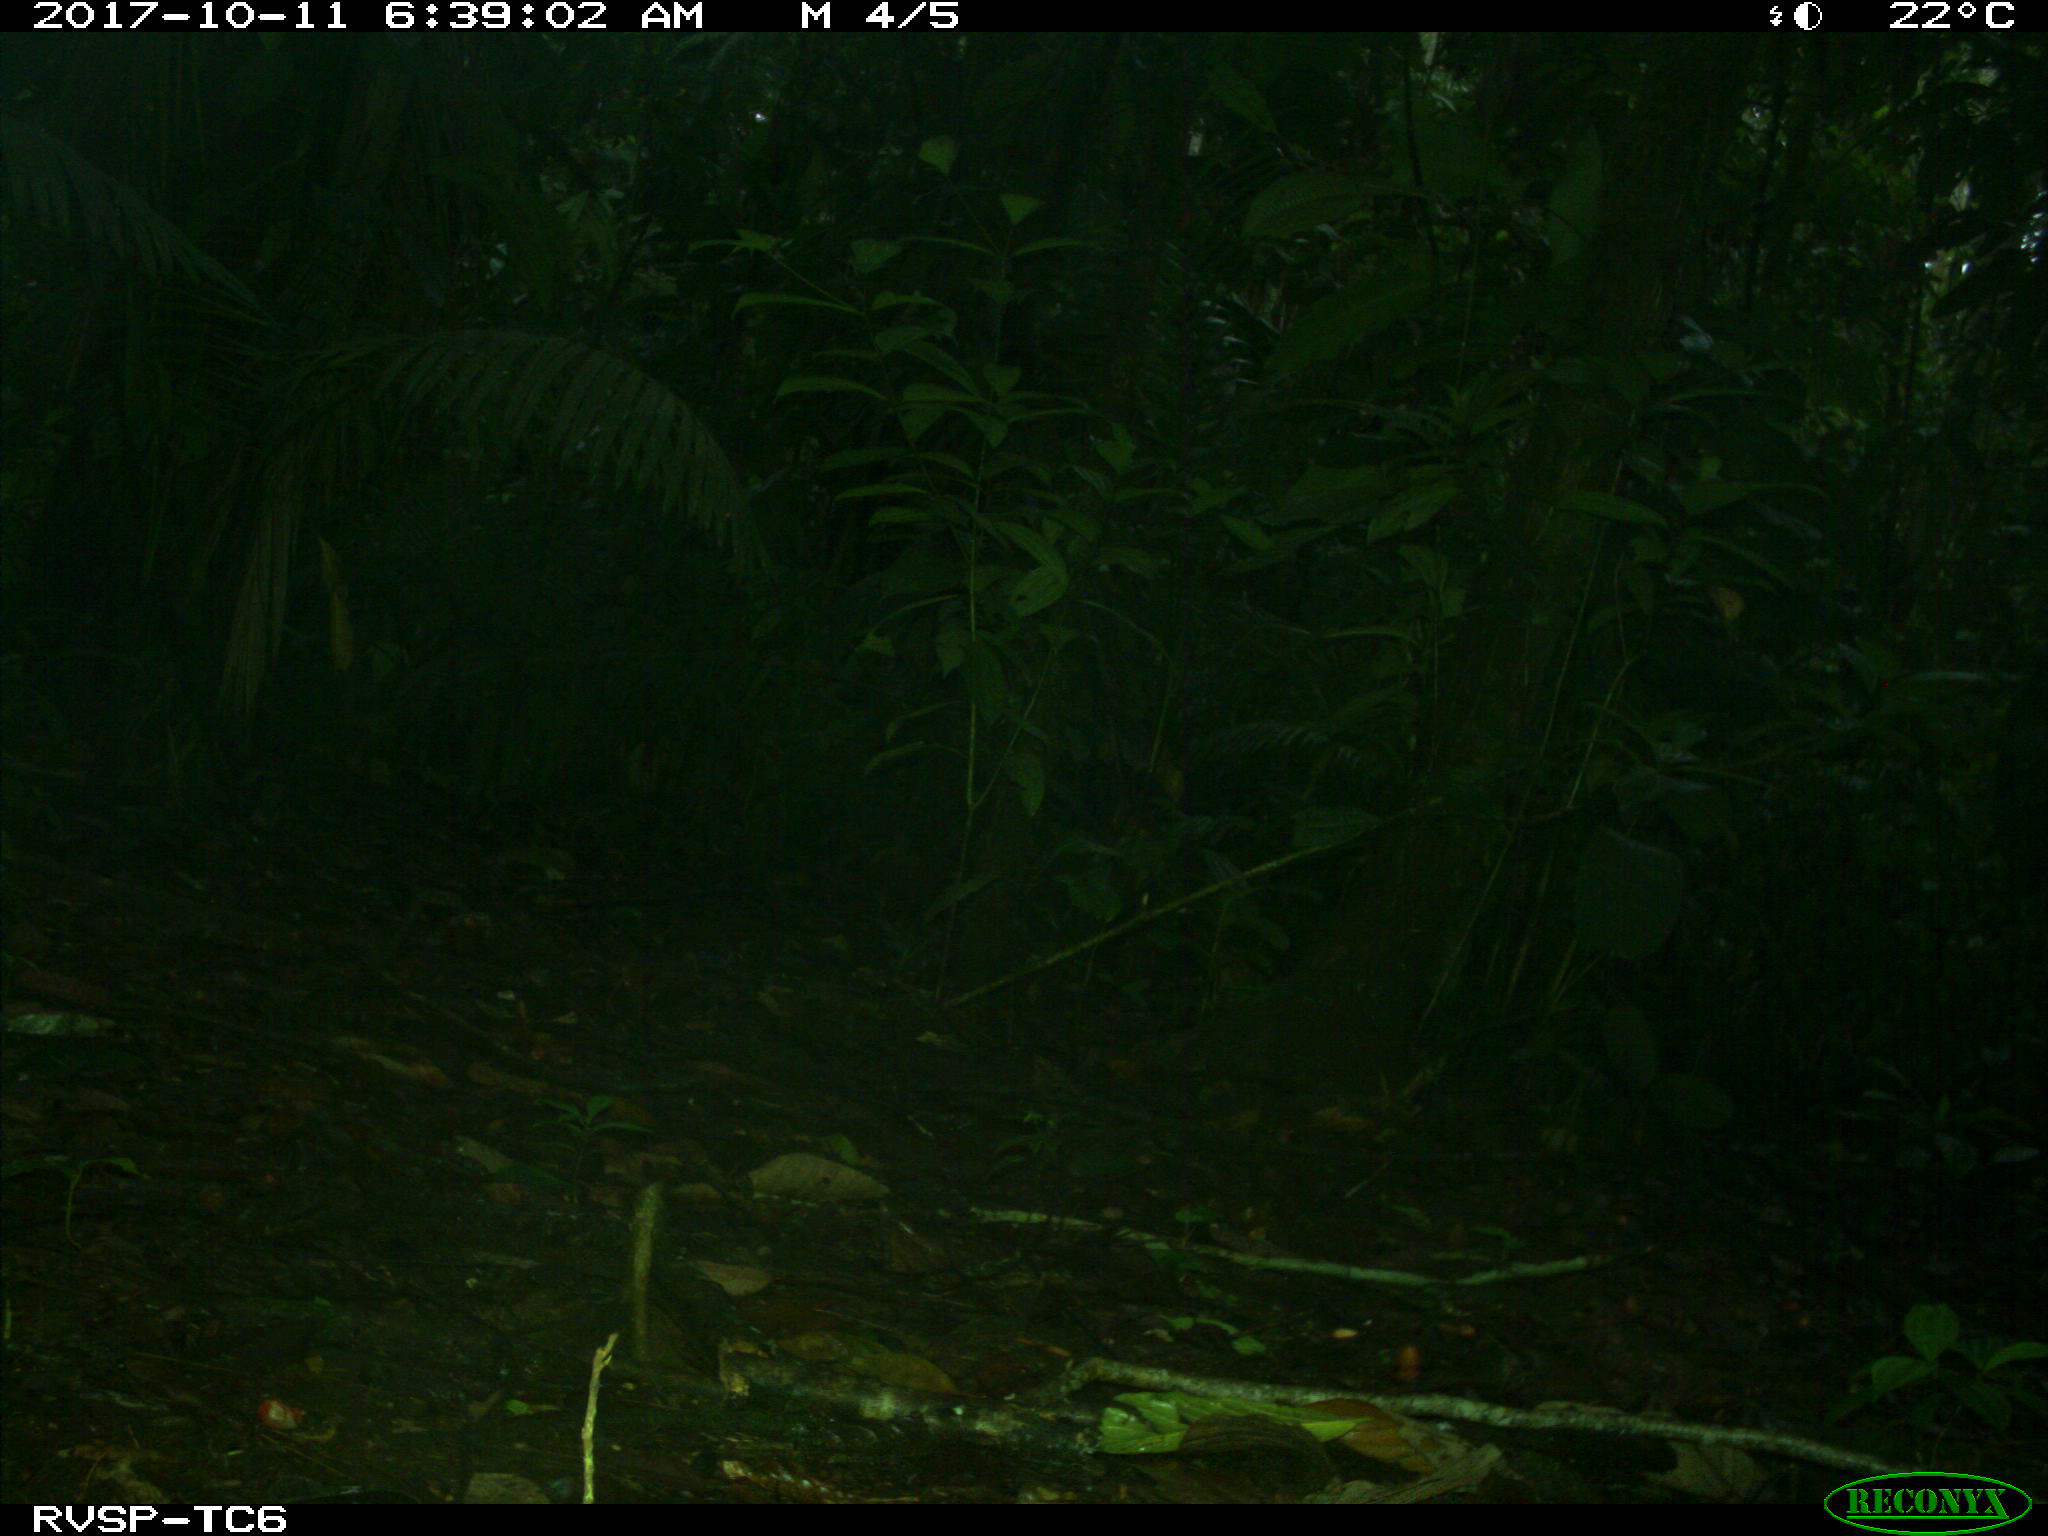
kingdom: Animalia
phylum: Chordata
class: Mammalia
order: Rodentia
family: Dasyproctidae
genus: Dasyprocta
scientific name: Dasyprocta punctata
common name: Central american agouti
